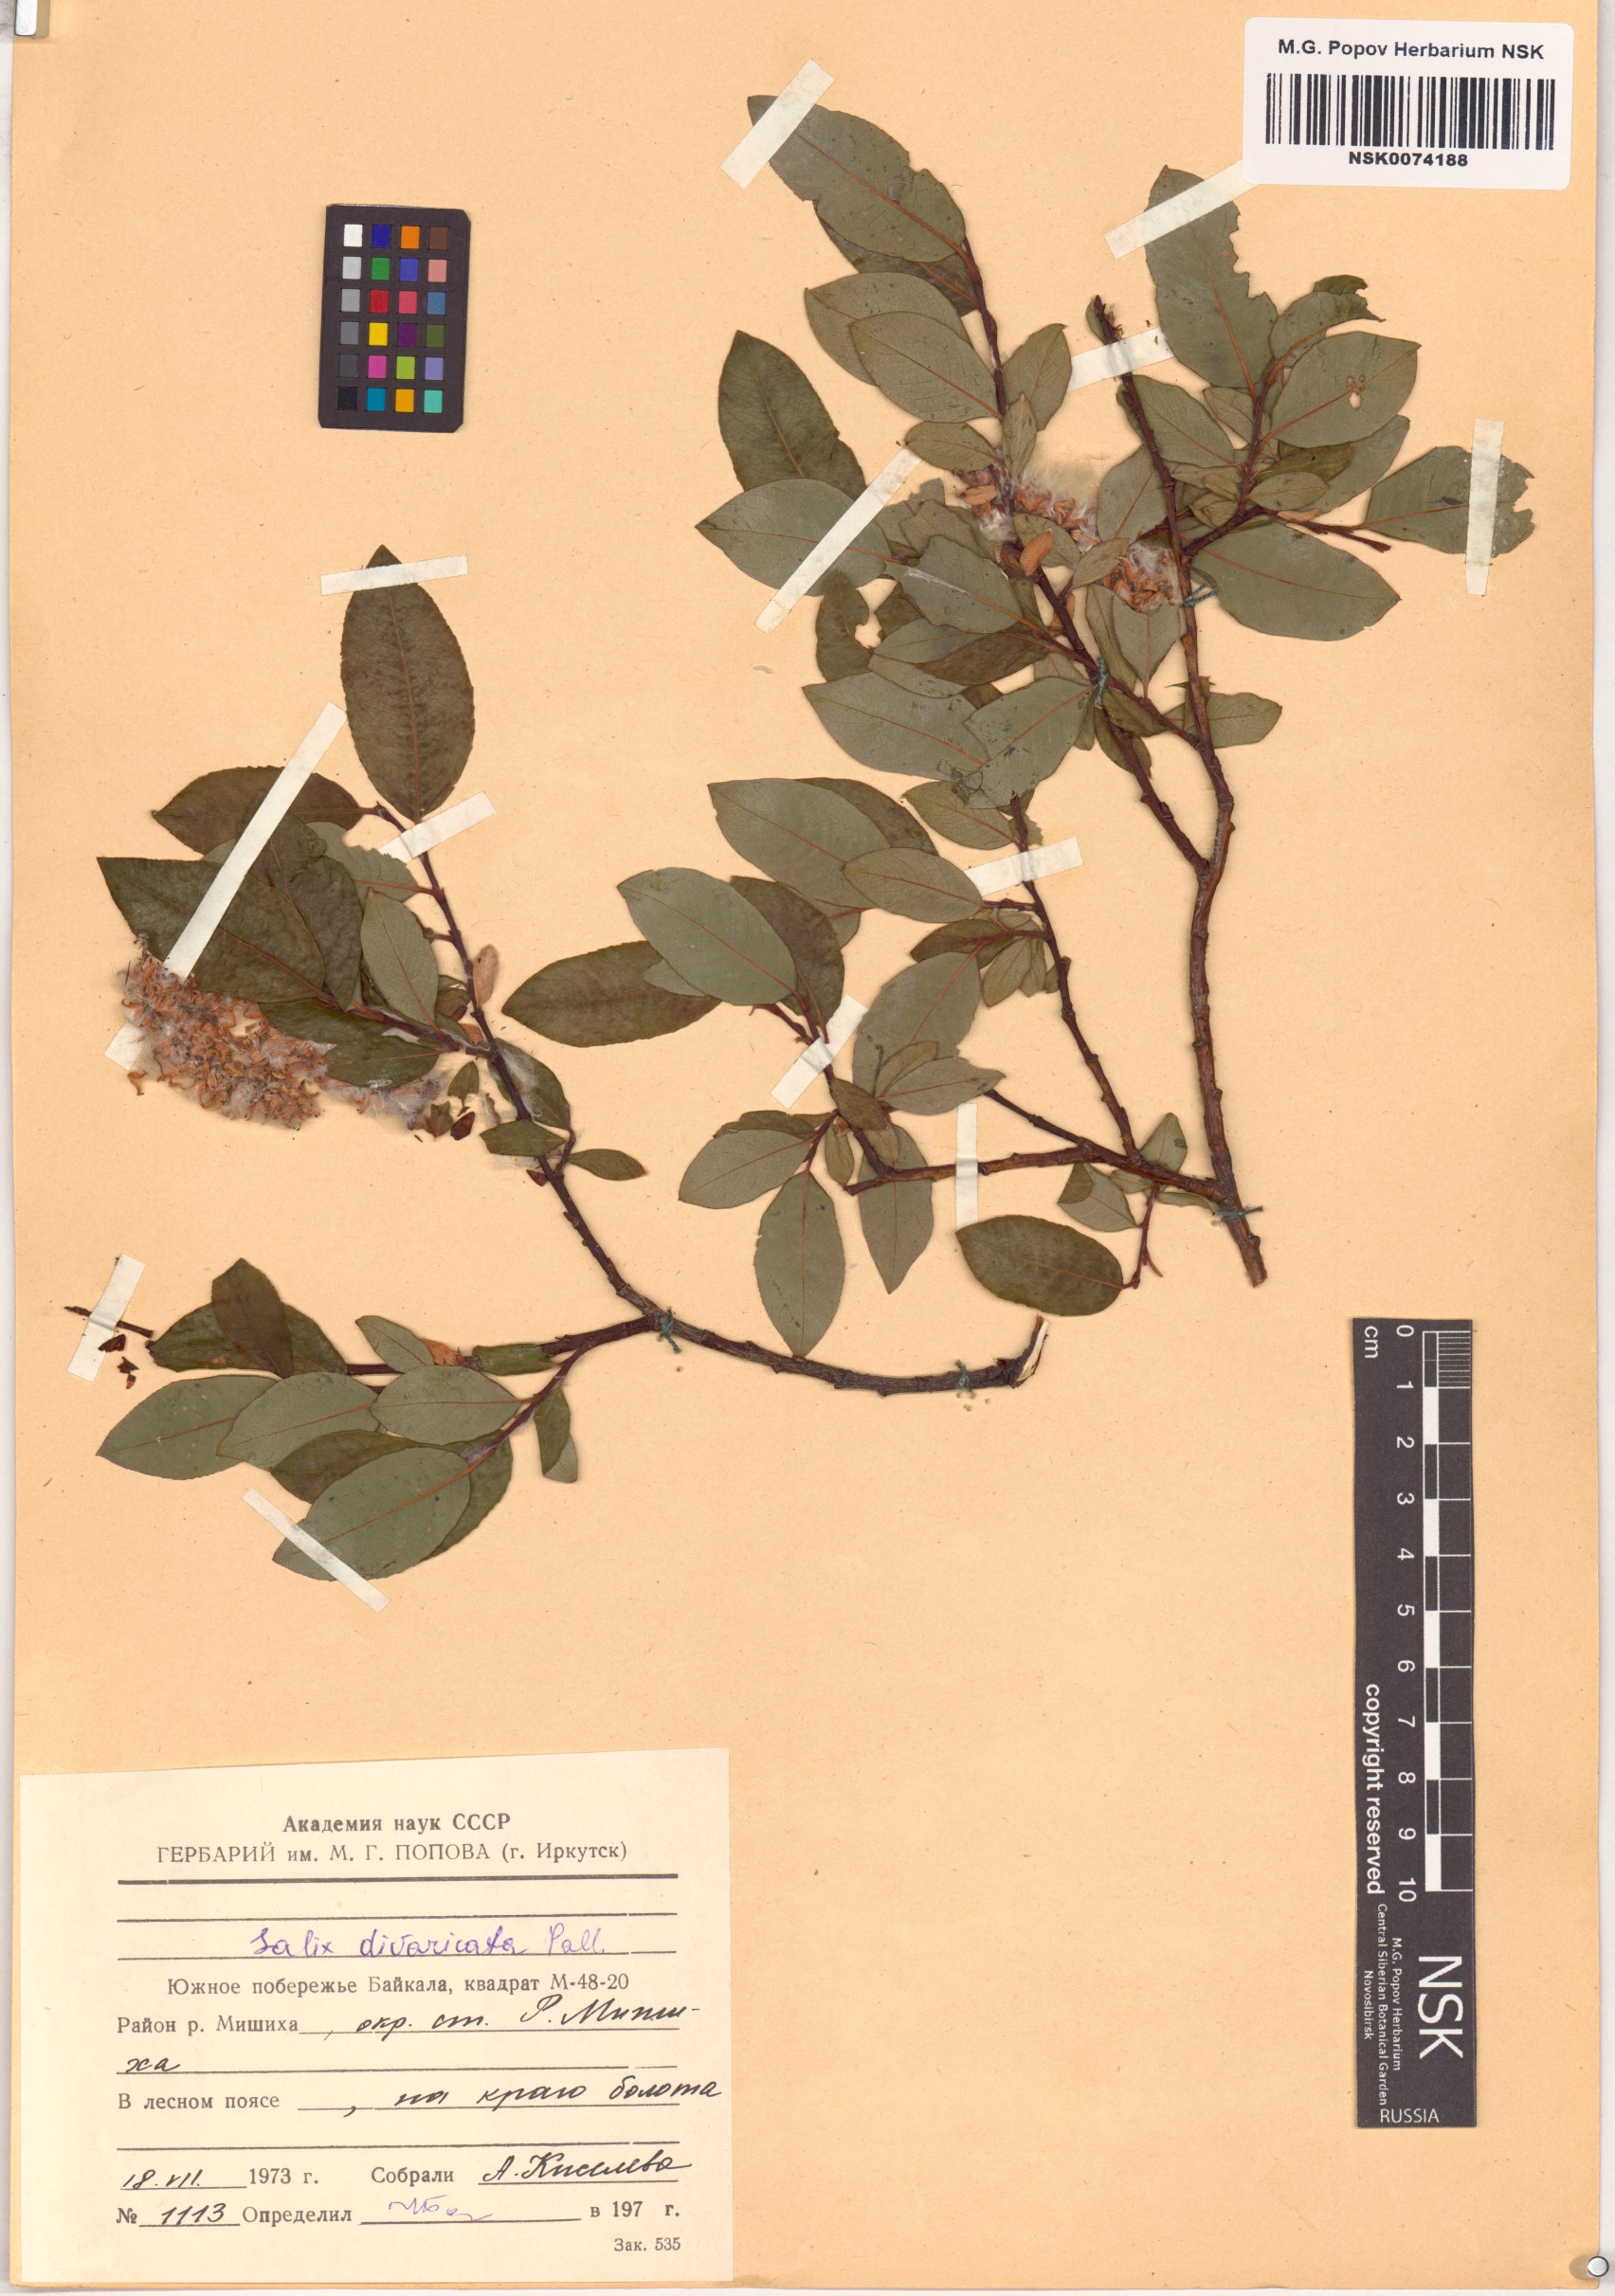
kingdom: Plantae
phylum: Tracheophyta
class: Magnoliopsida
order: Malpighiales
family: Salicaceae
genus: Salix
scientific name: Salix divaricata
